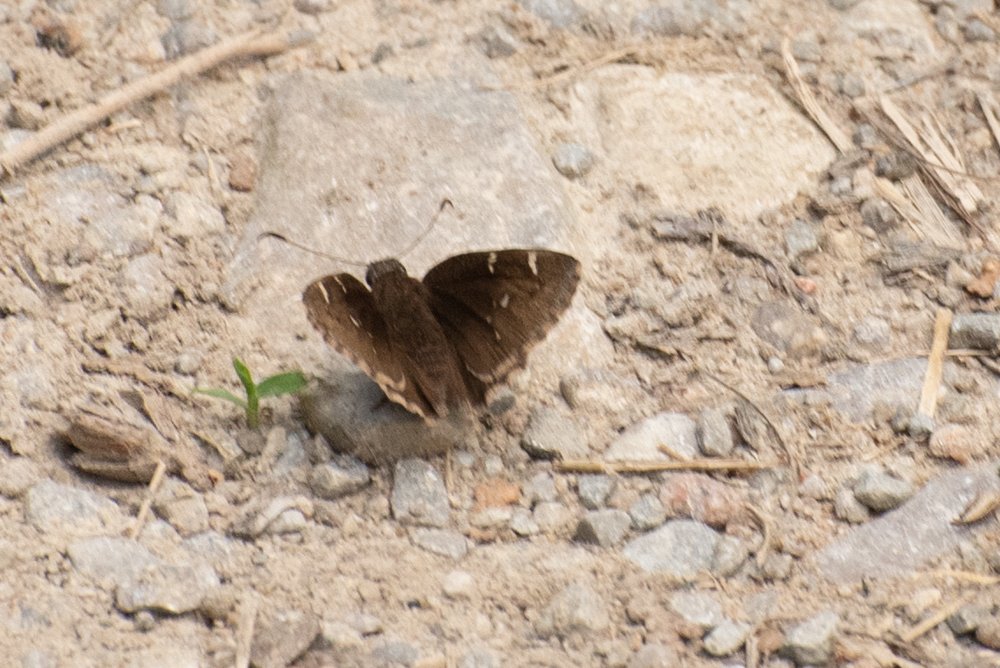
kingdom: Animalia
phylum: Arthropoda
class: Insecta
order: Lepidoptera
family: Hesperiidae
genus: Autochton
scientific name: Autochton
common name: Northern Cloudywing
